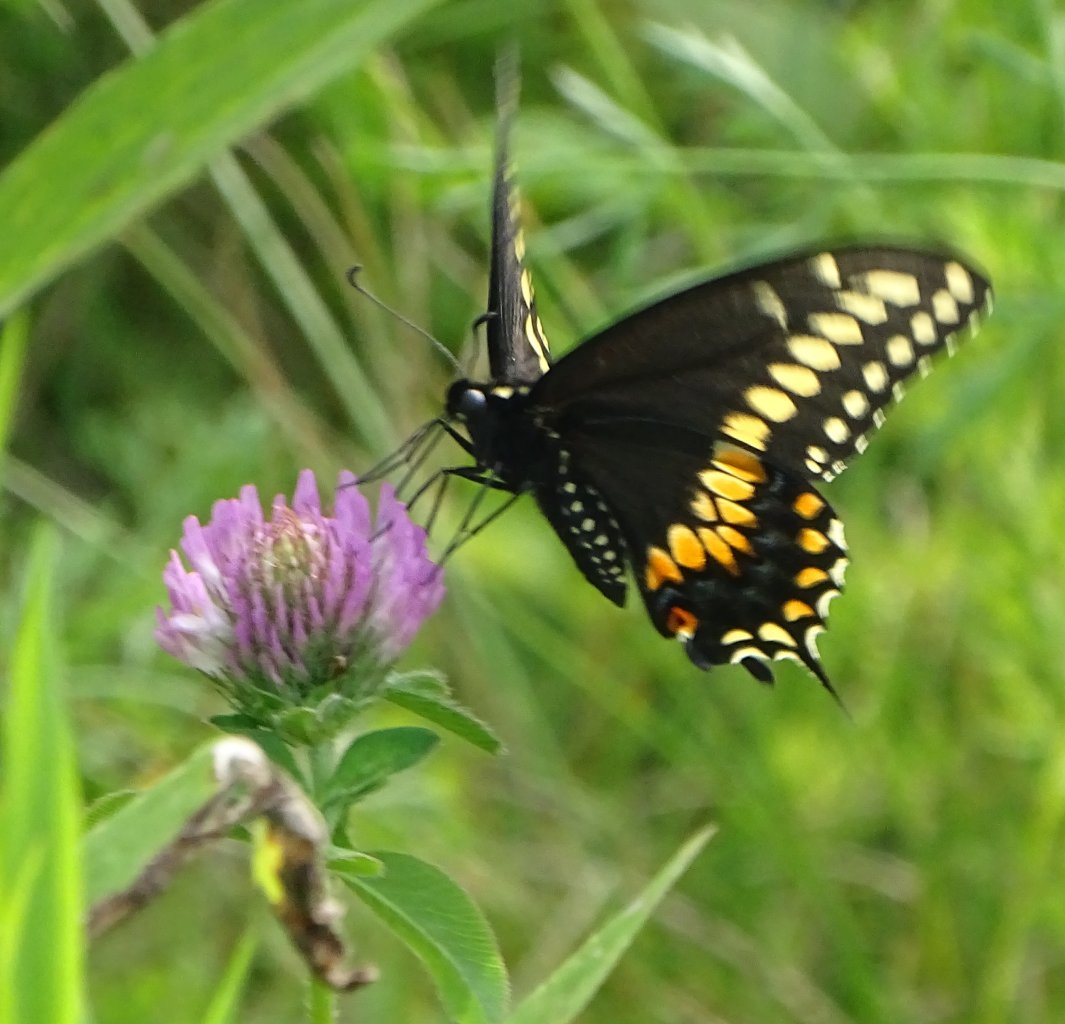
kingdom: Animalia
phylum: Arthropoda
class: Insecta
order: Lepidoptera
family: Papilionidae
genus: Papilio
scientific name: Papilio polyxenes
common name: Black Swallowtail
